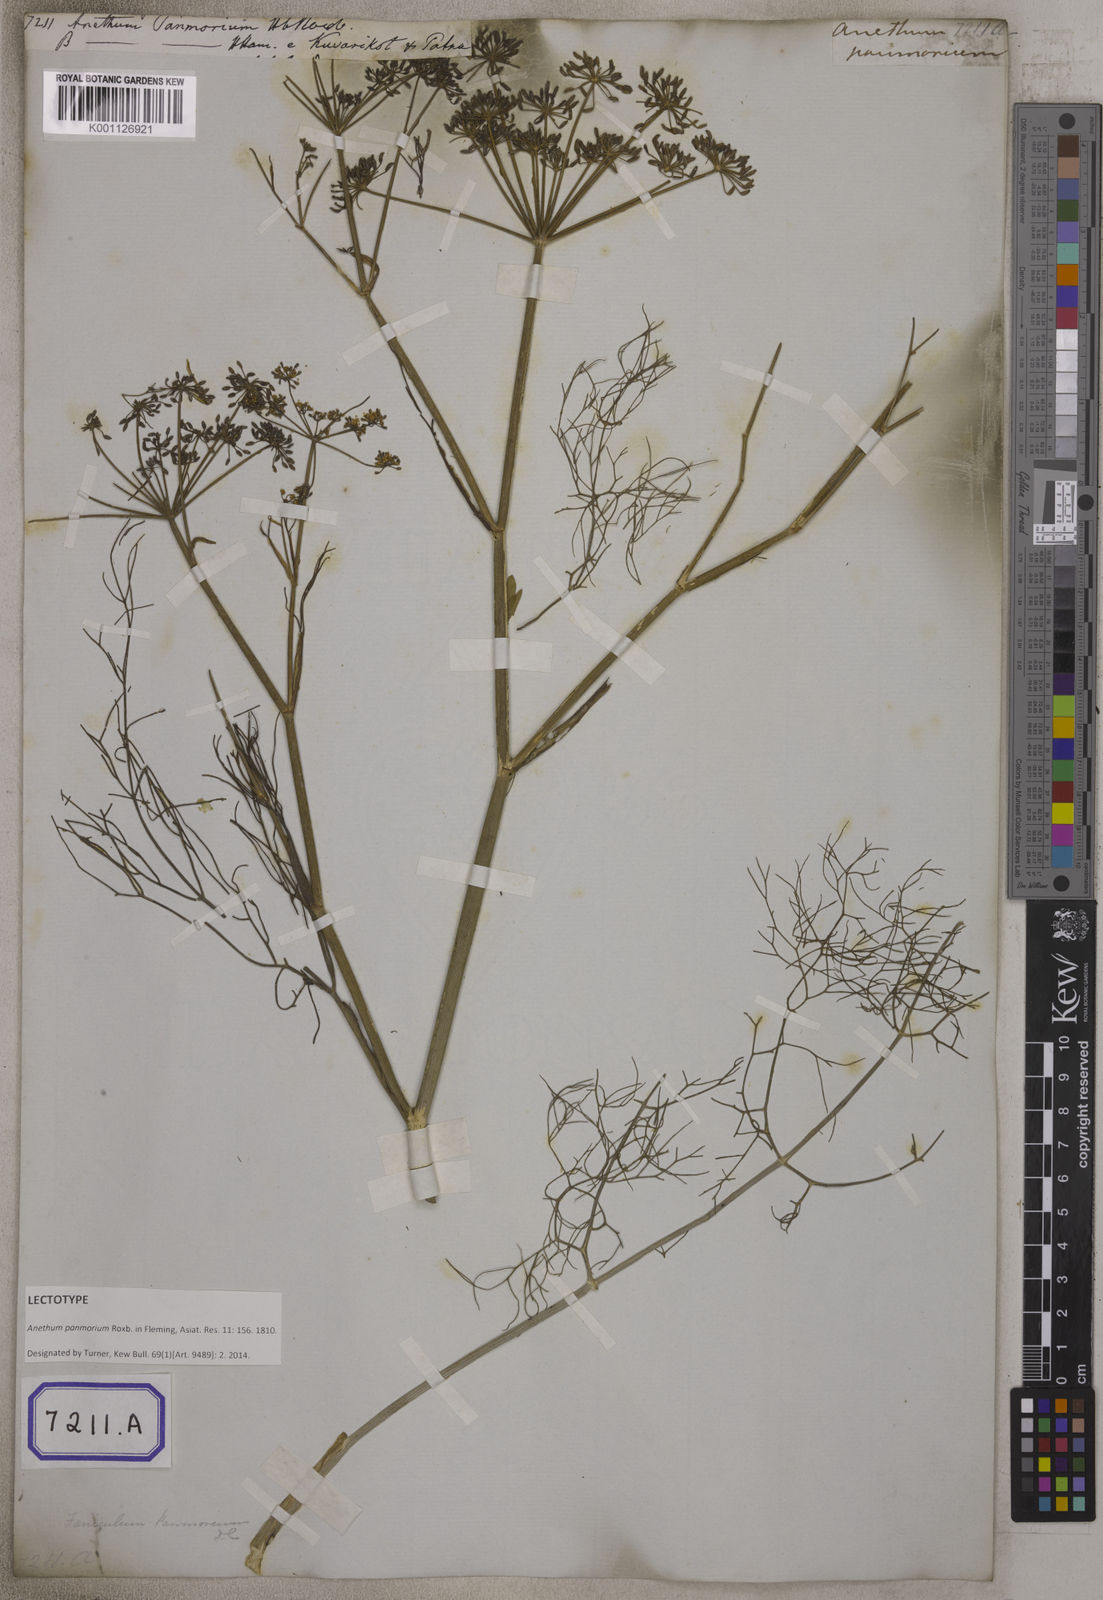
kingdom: Plantae
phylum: Tracheophyta
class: Magnoliopsida
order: Apiales
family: Apiaceae
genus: Anethum
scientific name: Anethum
